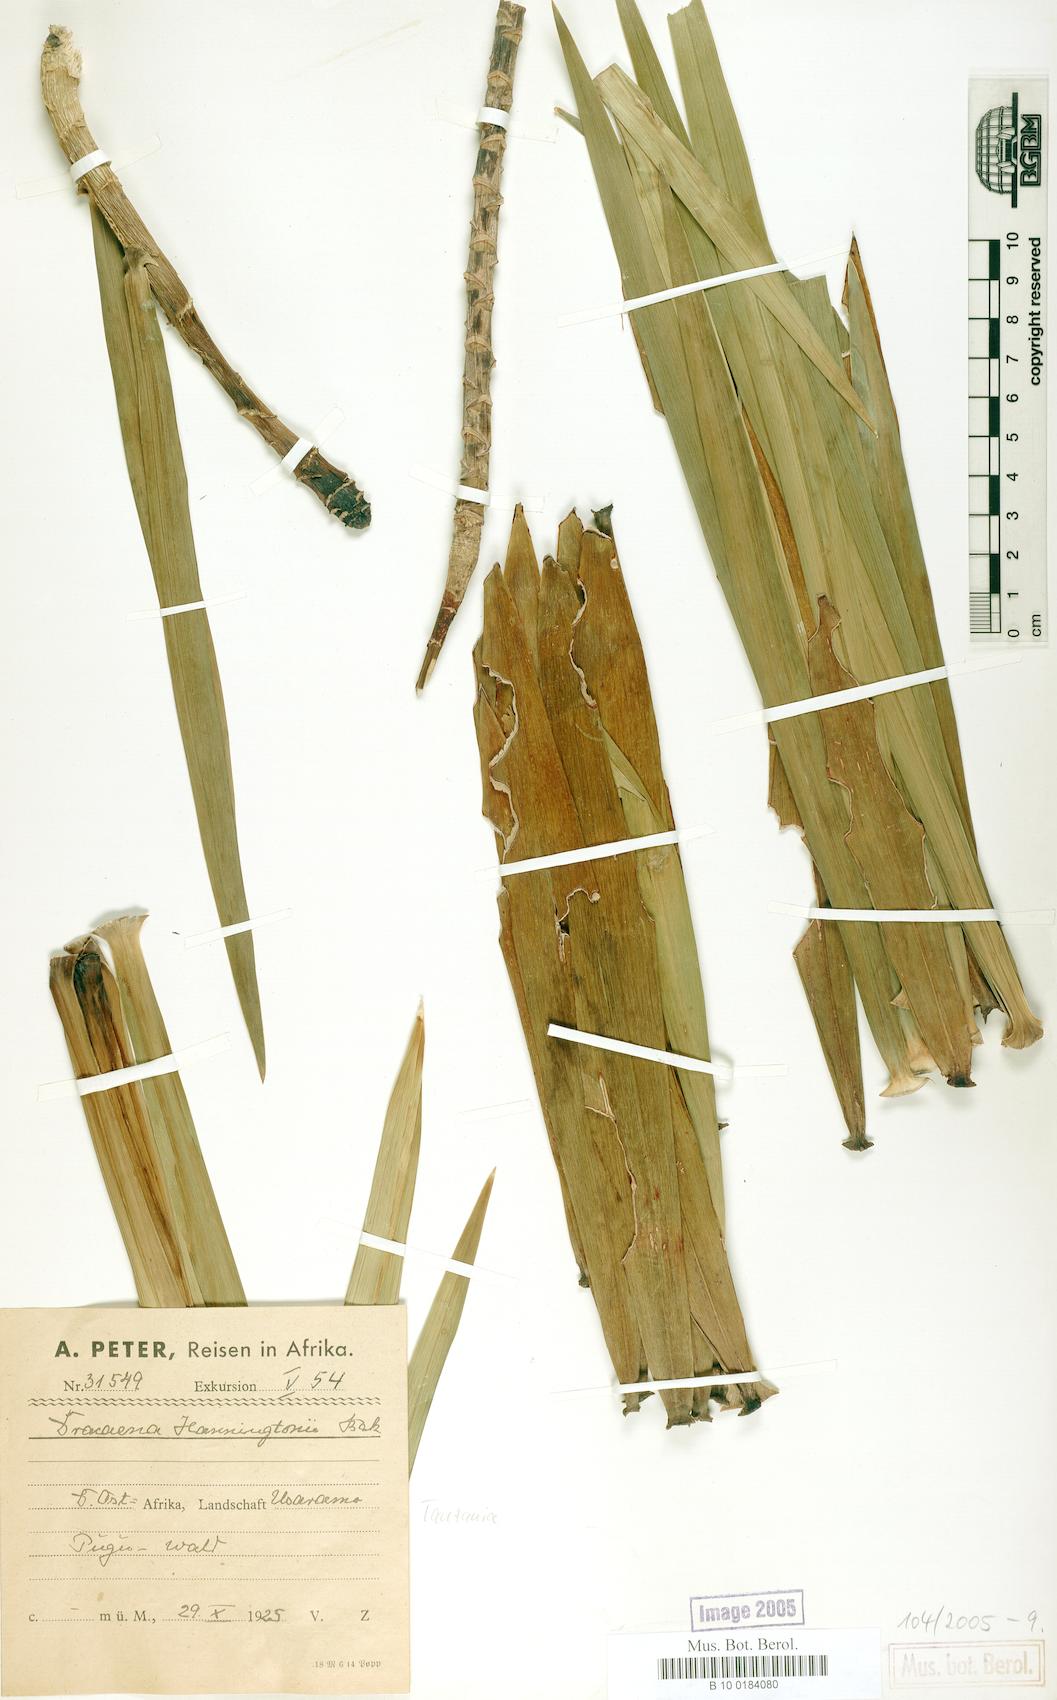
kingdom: Plantae
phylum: Tracheophyta
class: Liliopsida
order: Asparagales
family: Asparagaceae
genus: Dracaena
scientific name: Dracaena mannii
